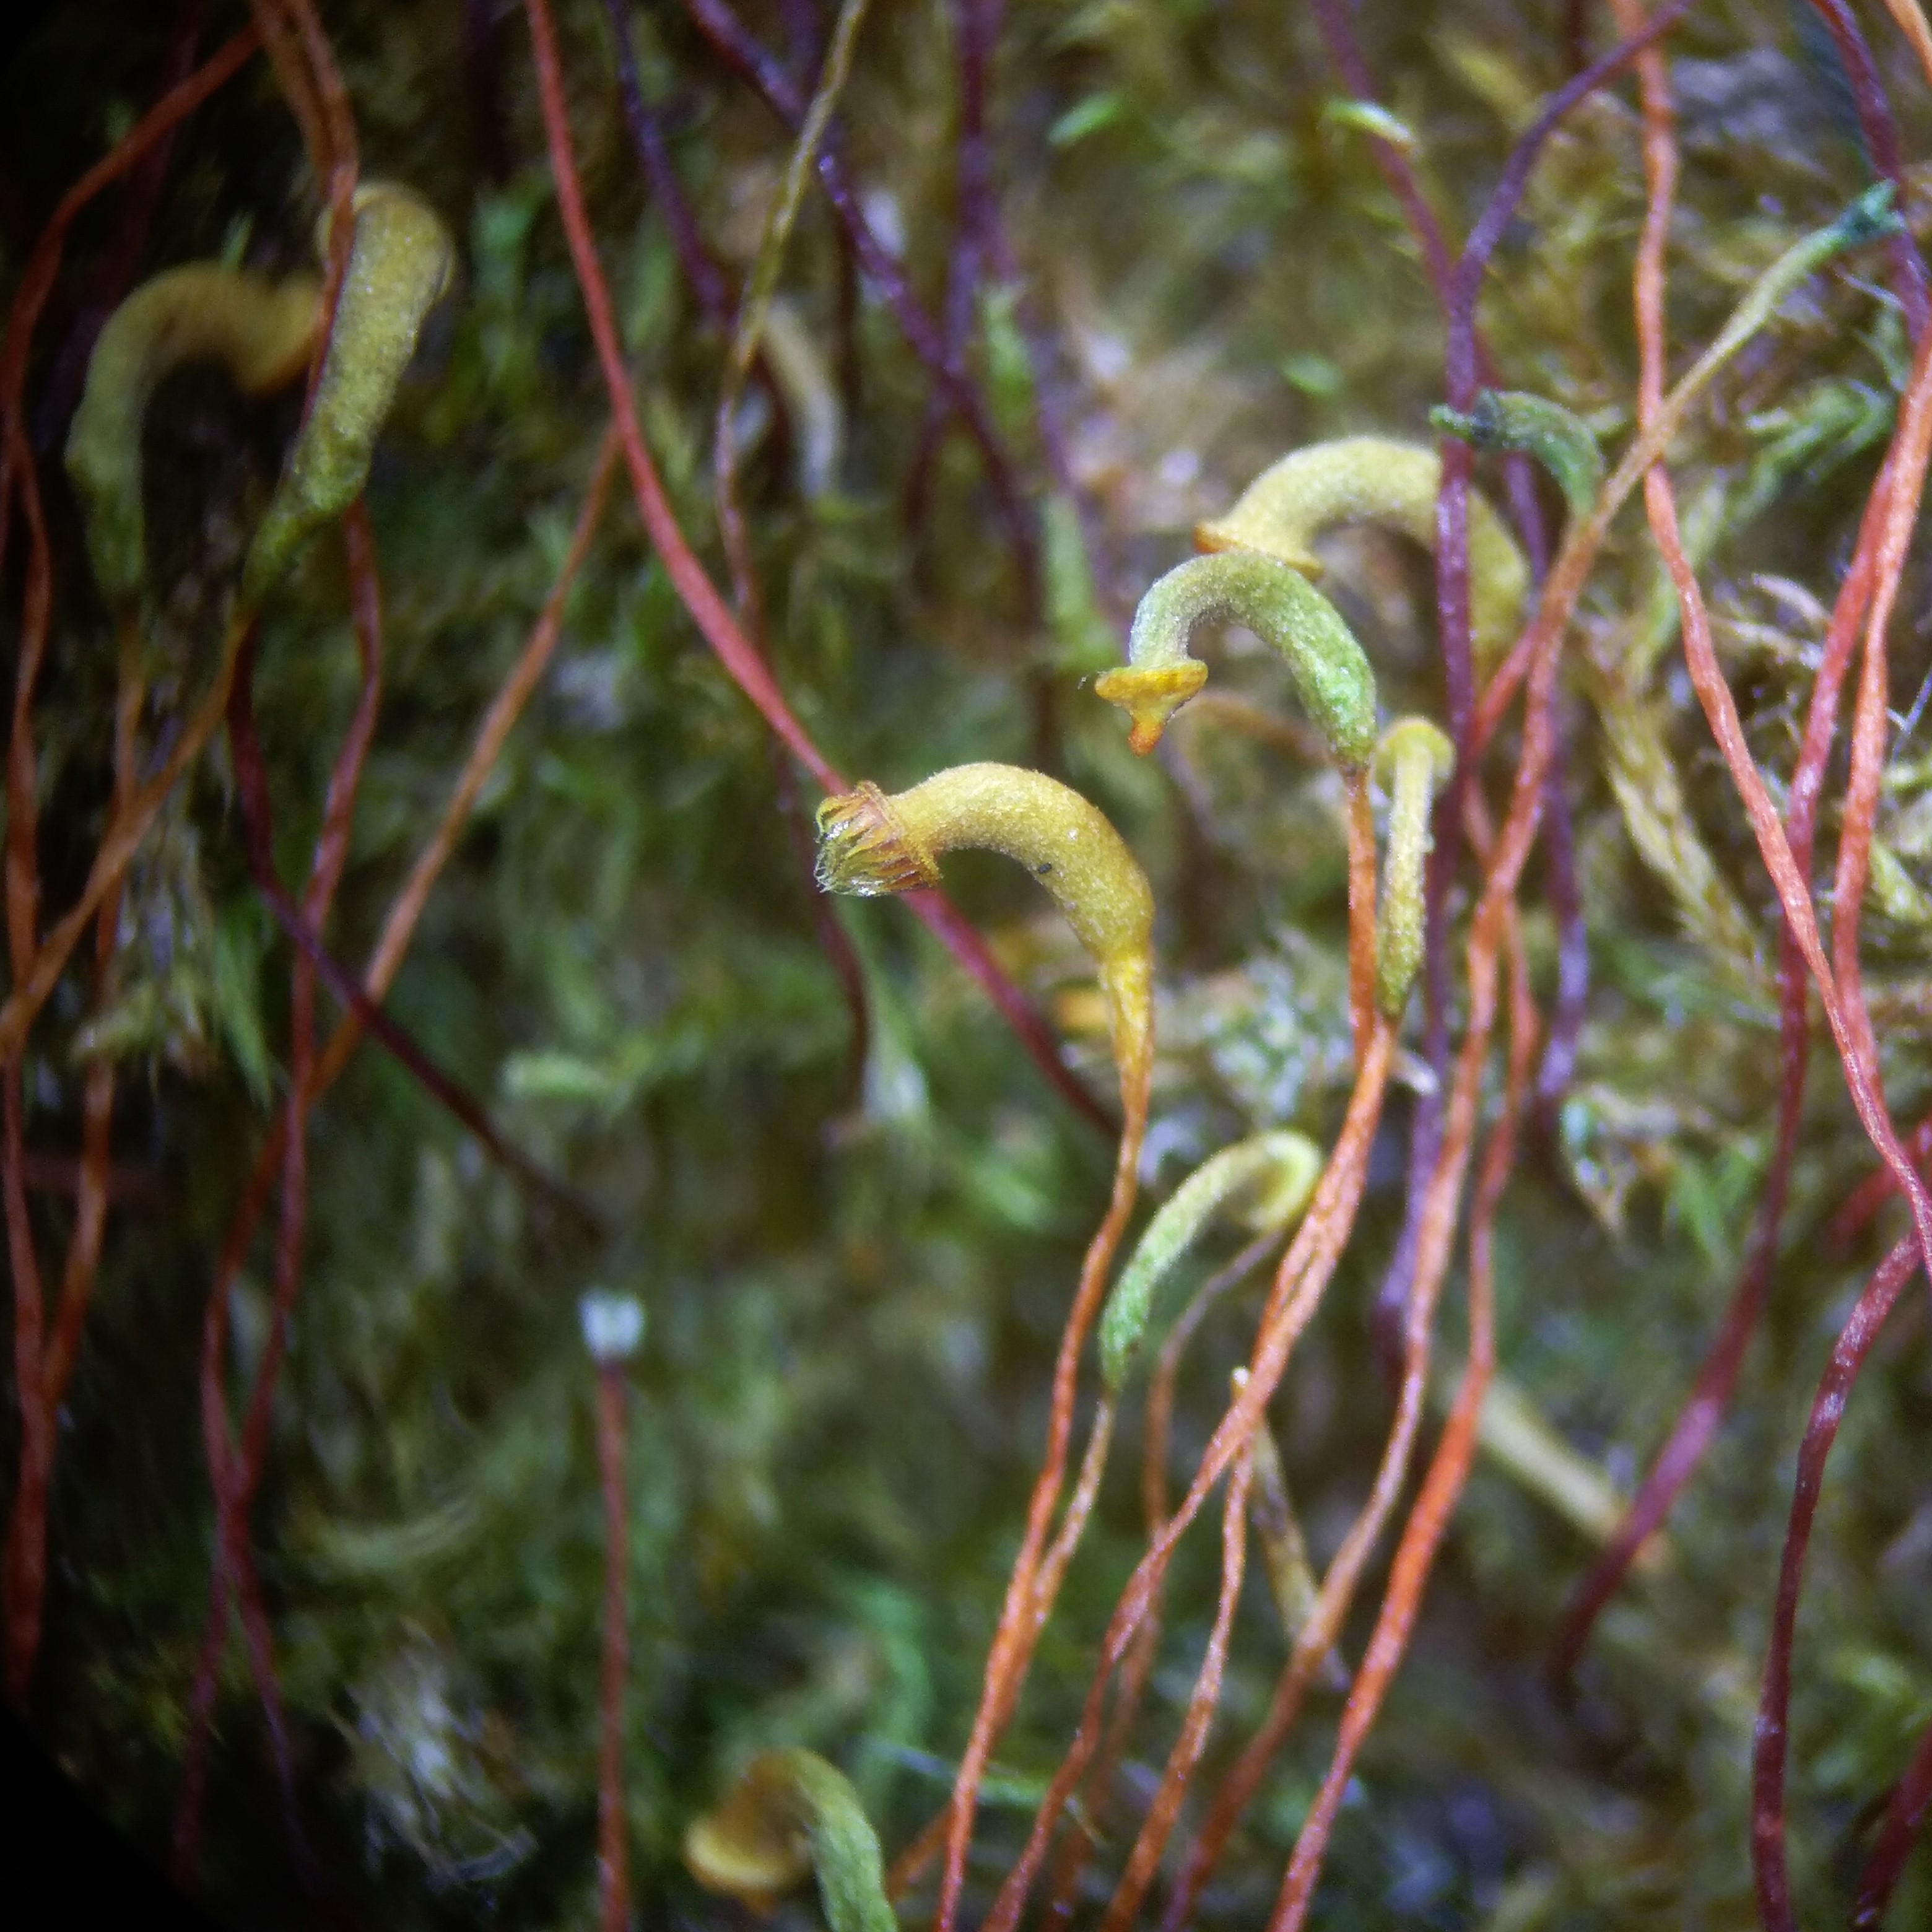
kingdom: Plantae
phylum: Bryophyta
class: Bryopsida
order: Hypnales
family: Amblystegiaceae
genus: Hygroamblystegium
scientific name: Hygroamblystegium varium
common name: Bugtet vandkrybmos
